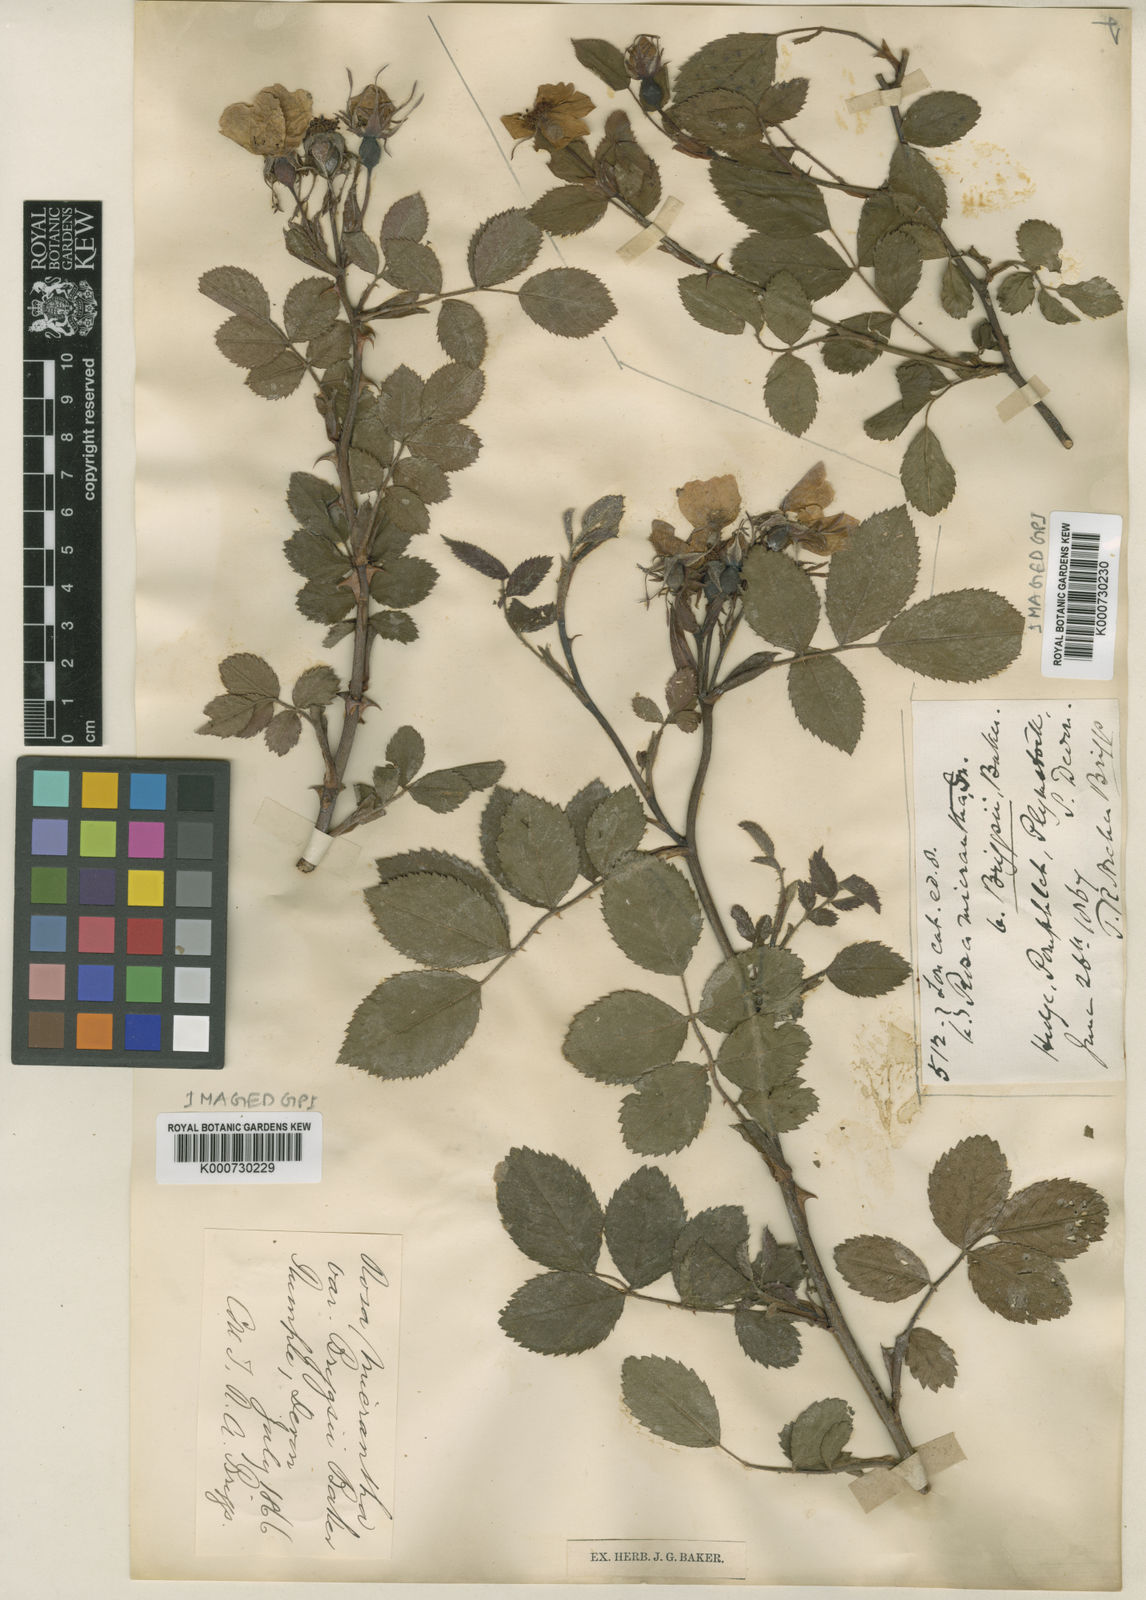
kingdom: Plantae
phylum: Tracheophyta
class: Magnoliopsida
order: Rosales
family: Rosaceae
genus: Rosa
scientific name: Rosa micrantha
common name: Small-flowered sweet-briar
